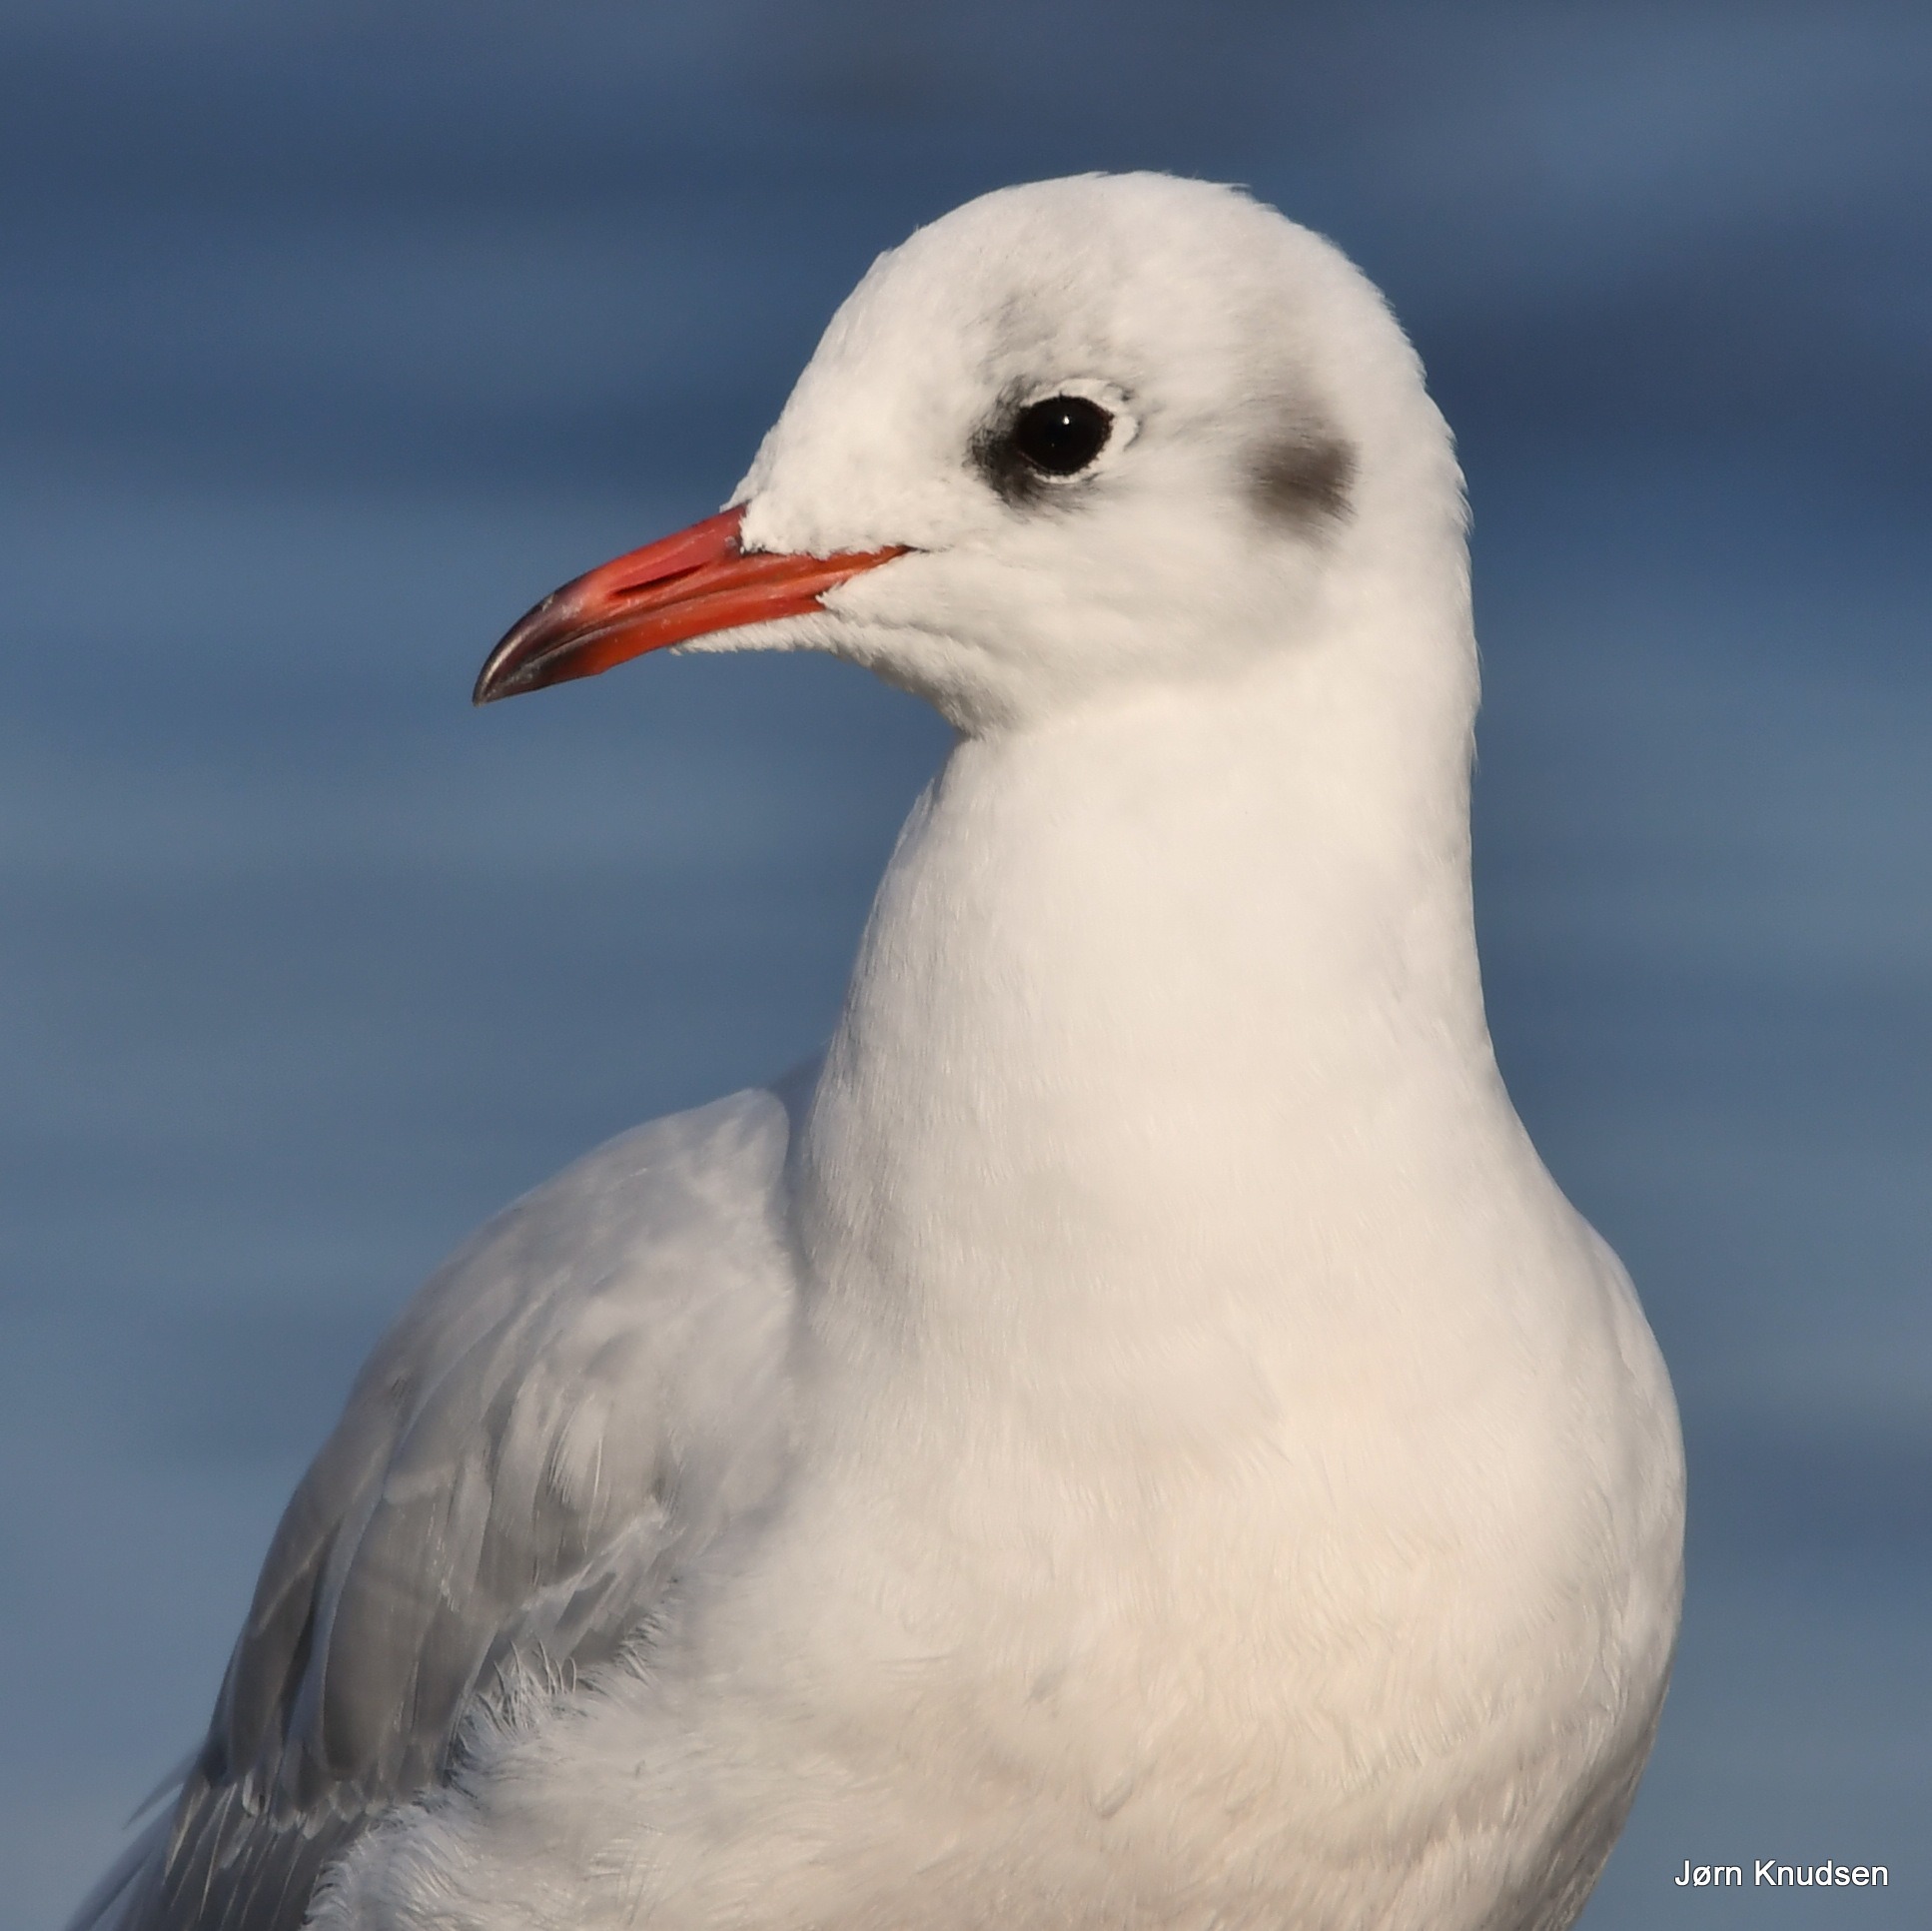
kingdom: Animalia
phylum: Chordata
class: Aves
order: Charadriiformes
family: Laridae
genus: Chroicocephalus
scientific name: Chroicocephalus ridibundus
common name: Hættemåge
